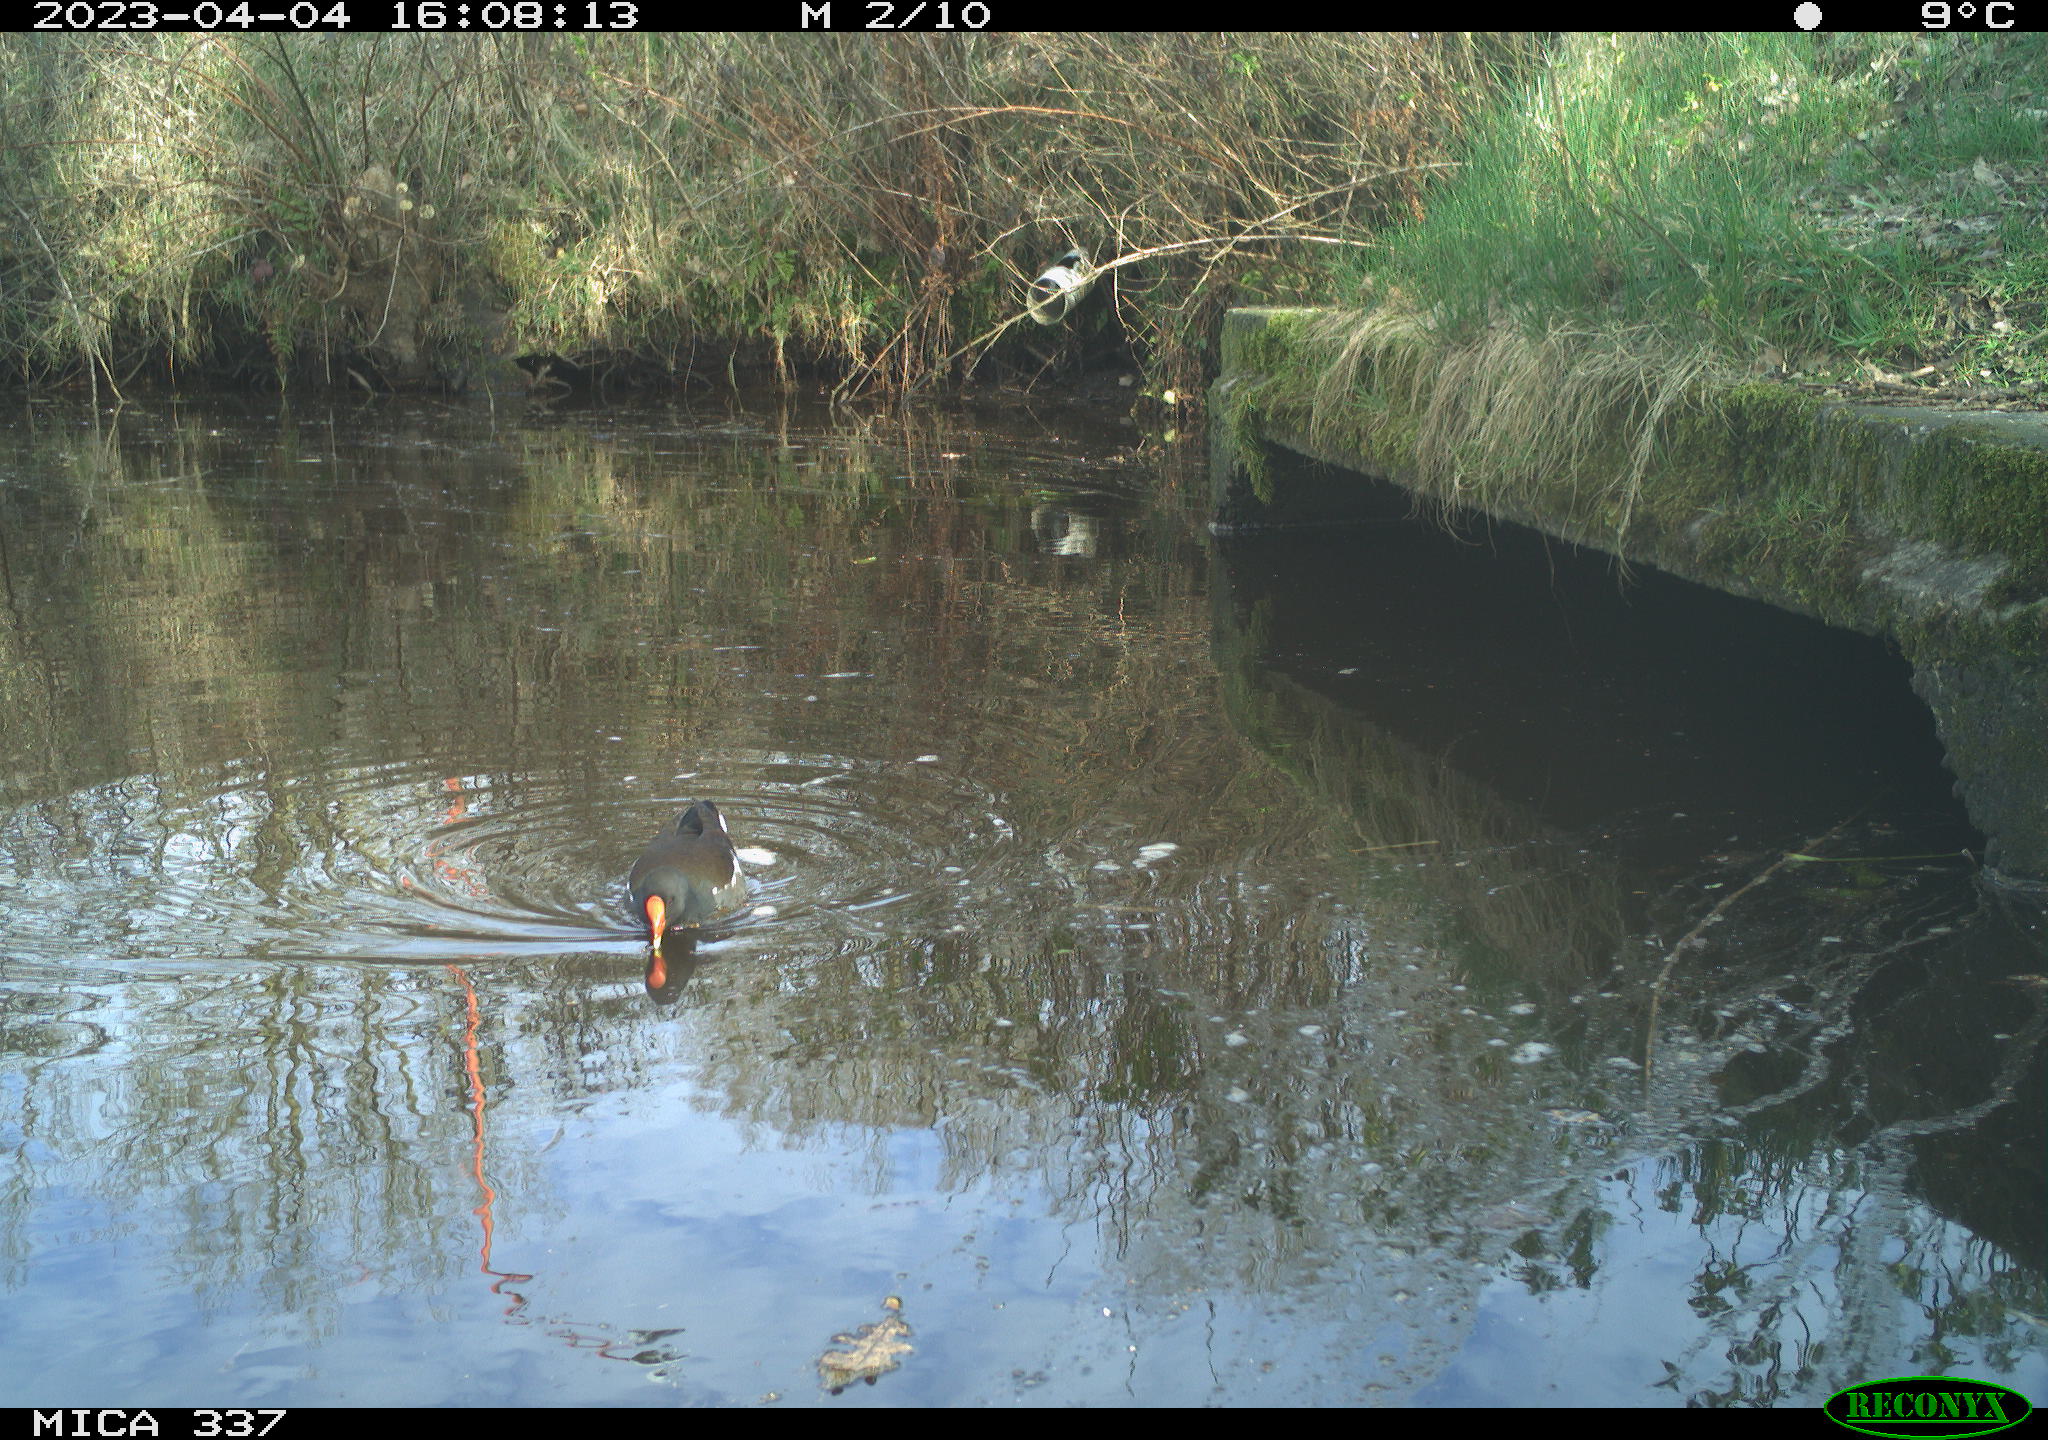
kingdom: Animalia
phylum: Chordata
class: Aves
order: Gruiformes
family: Rallidae
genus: Gallinula
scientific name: Gallinula chloropus
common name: Common moorhen
